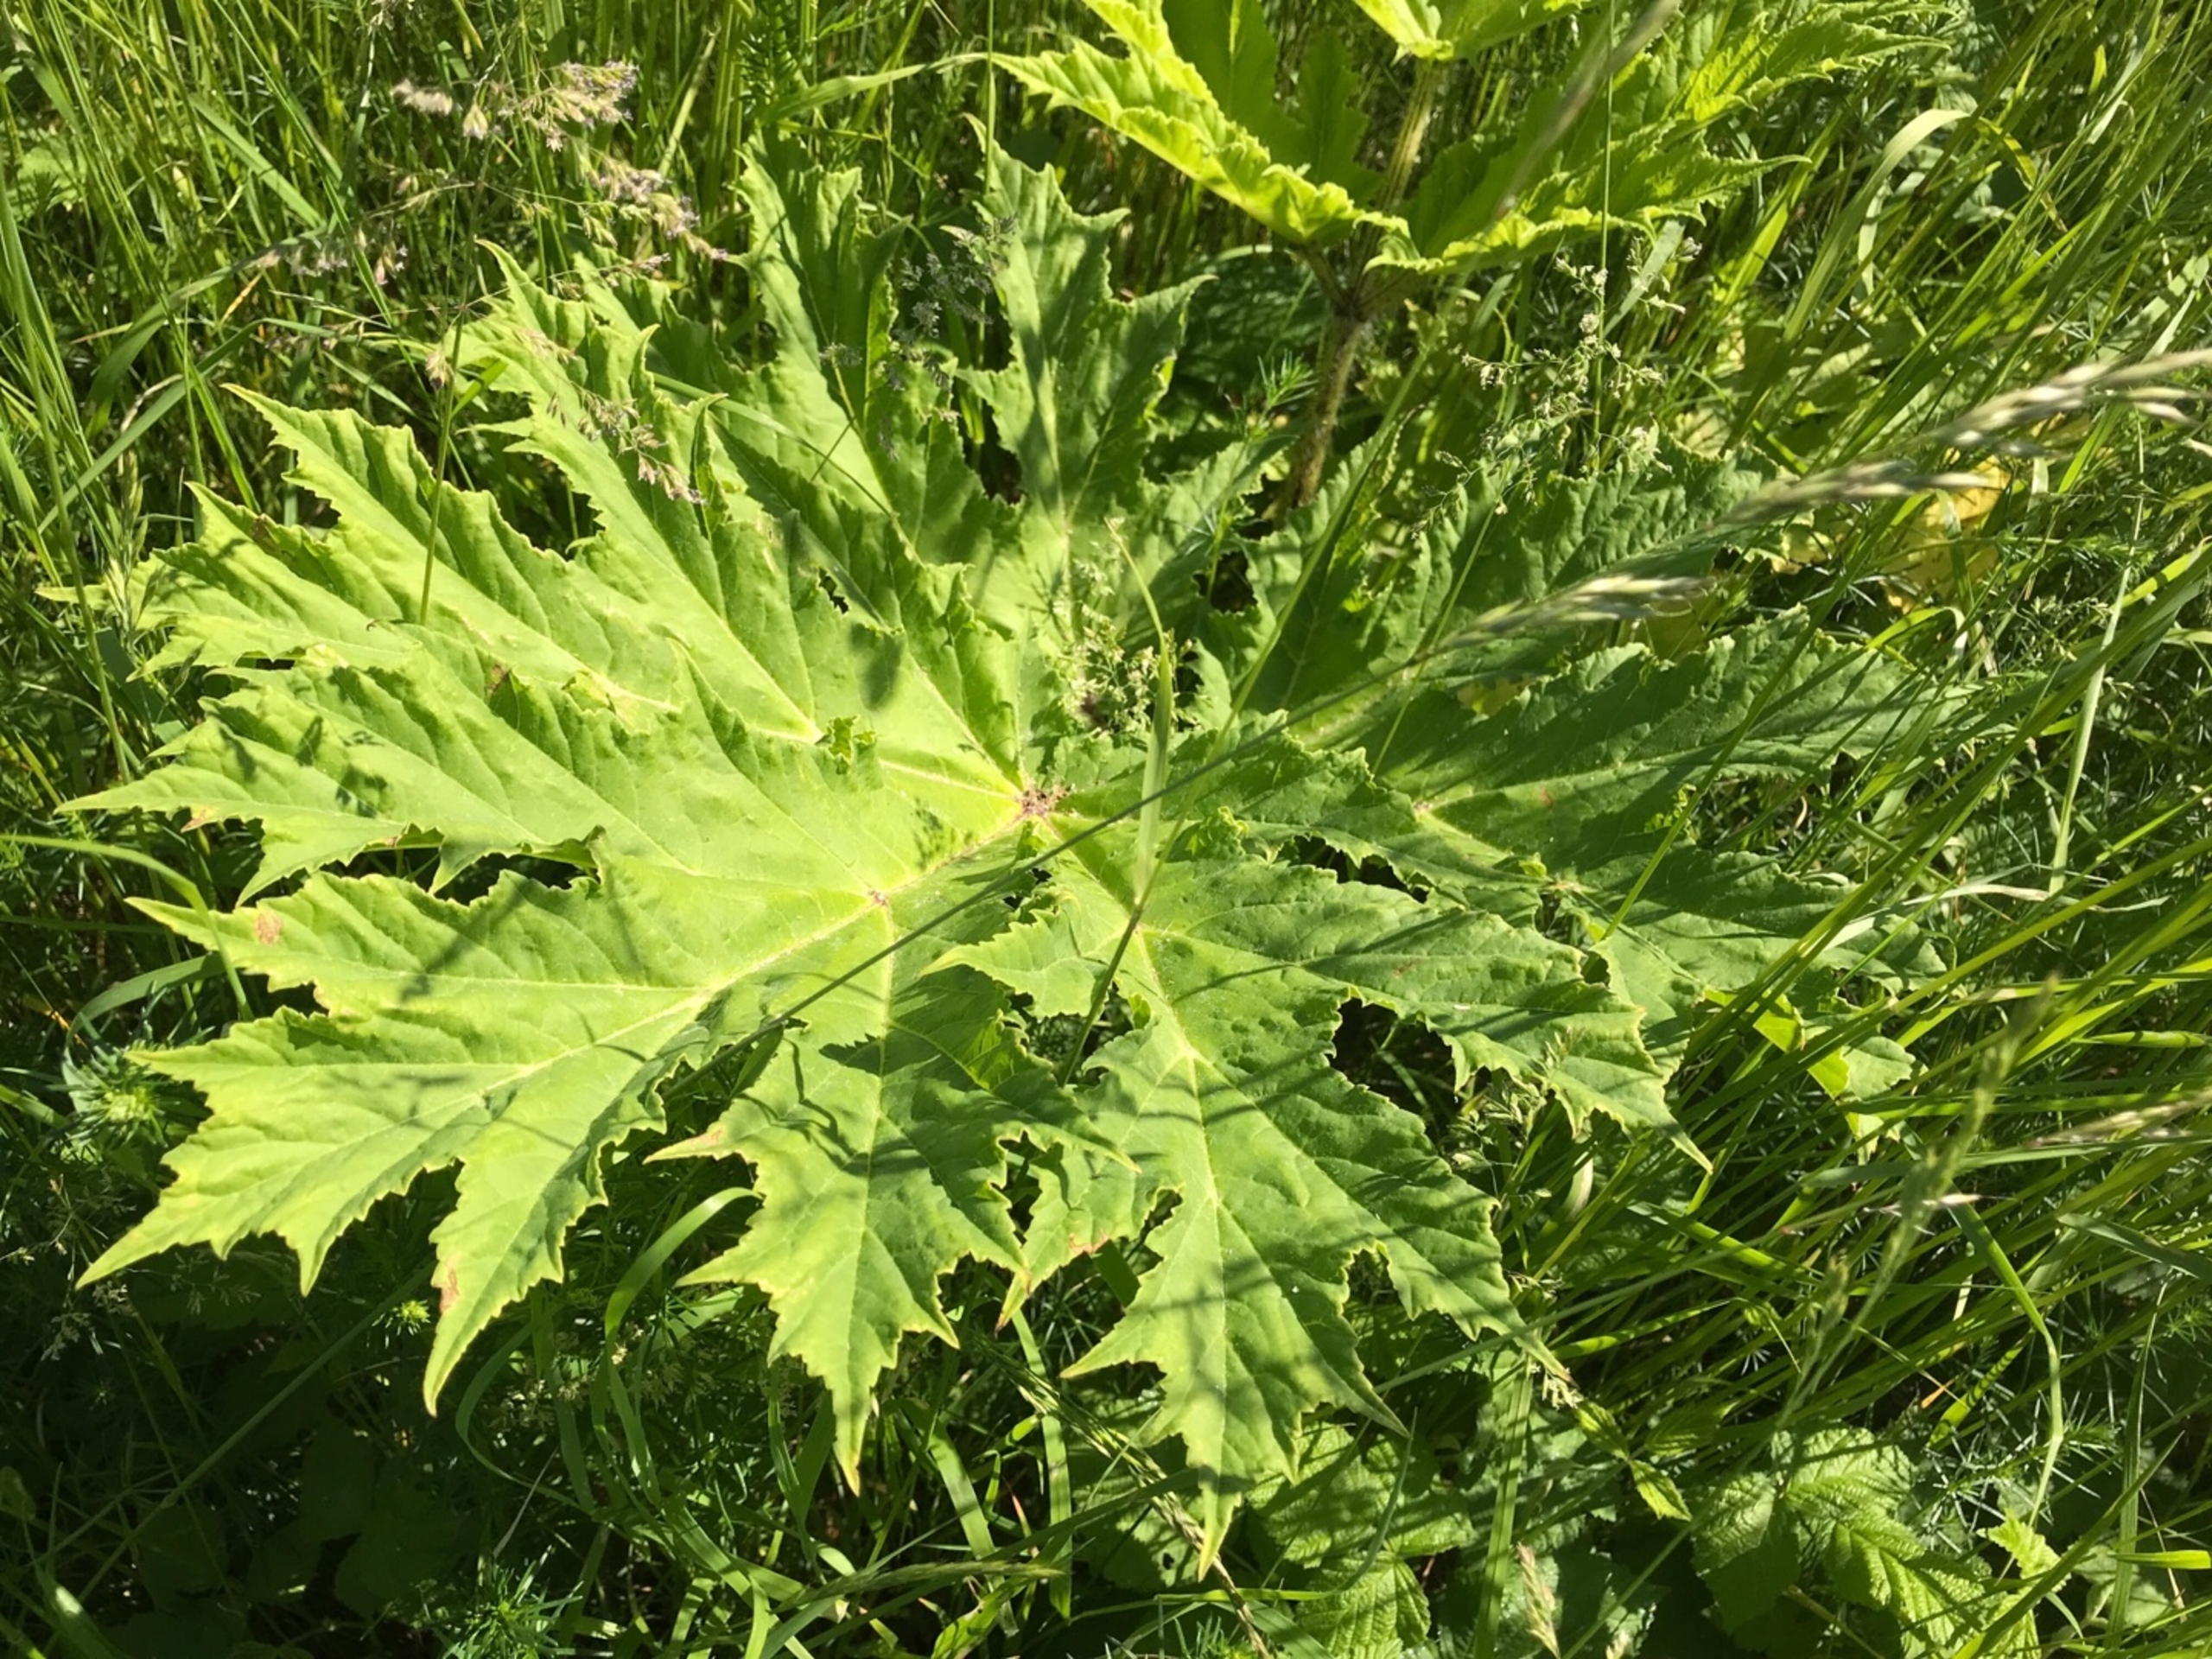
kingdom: Plantae
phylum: Tracheophyta
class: Magnoliopsida
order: Apiales
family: Apiaceae
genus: Heracleum
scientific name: Heracleum mantegazzianum
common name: Kæmpe-bjørneklo
